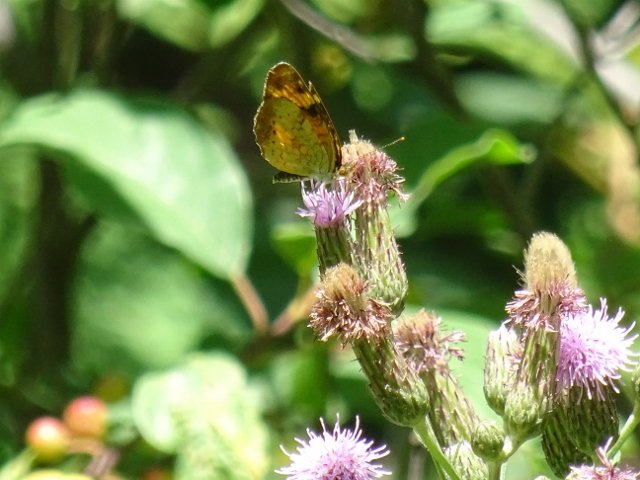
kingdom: Animalia
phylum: Arthropoda
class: Insecta
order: Lepidoptera
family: Nymphalidae
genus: Phyciodes
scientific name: Phyciodes tharos
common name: Northern Crescent
